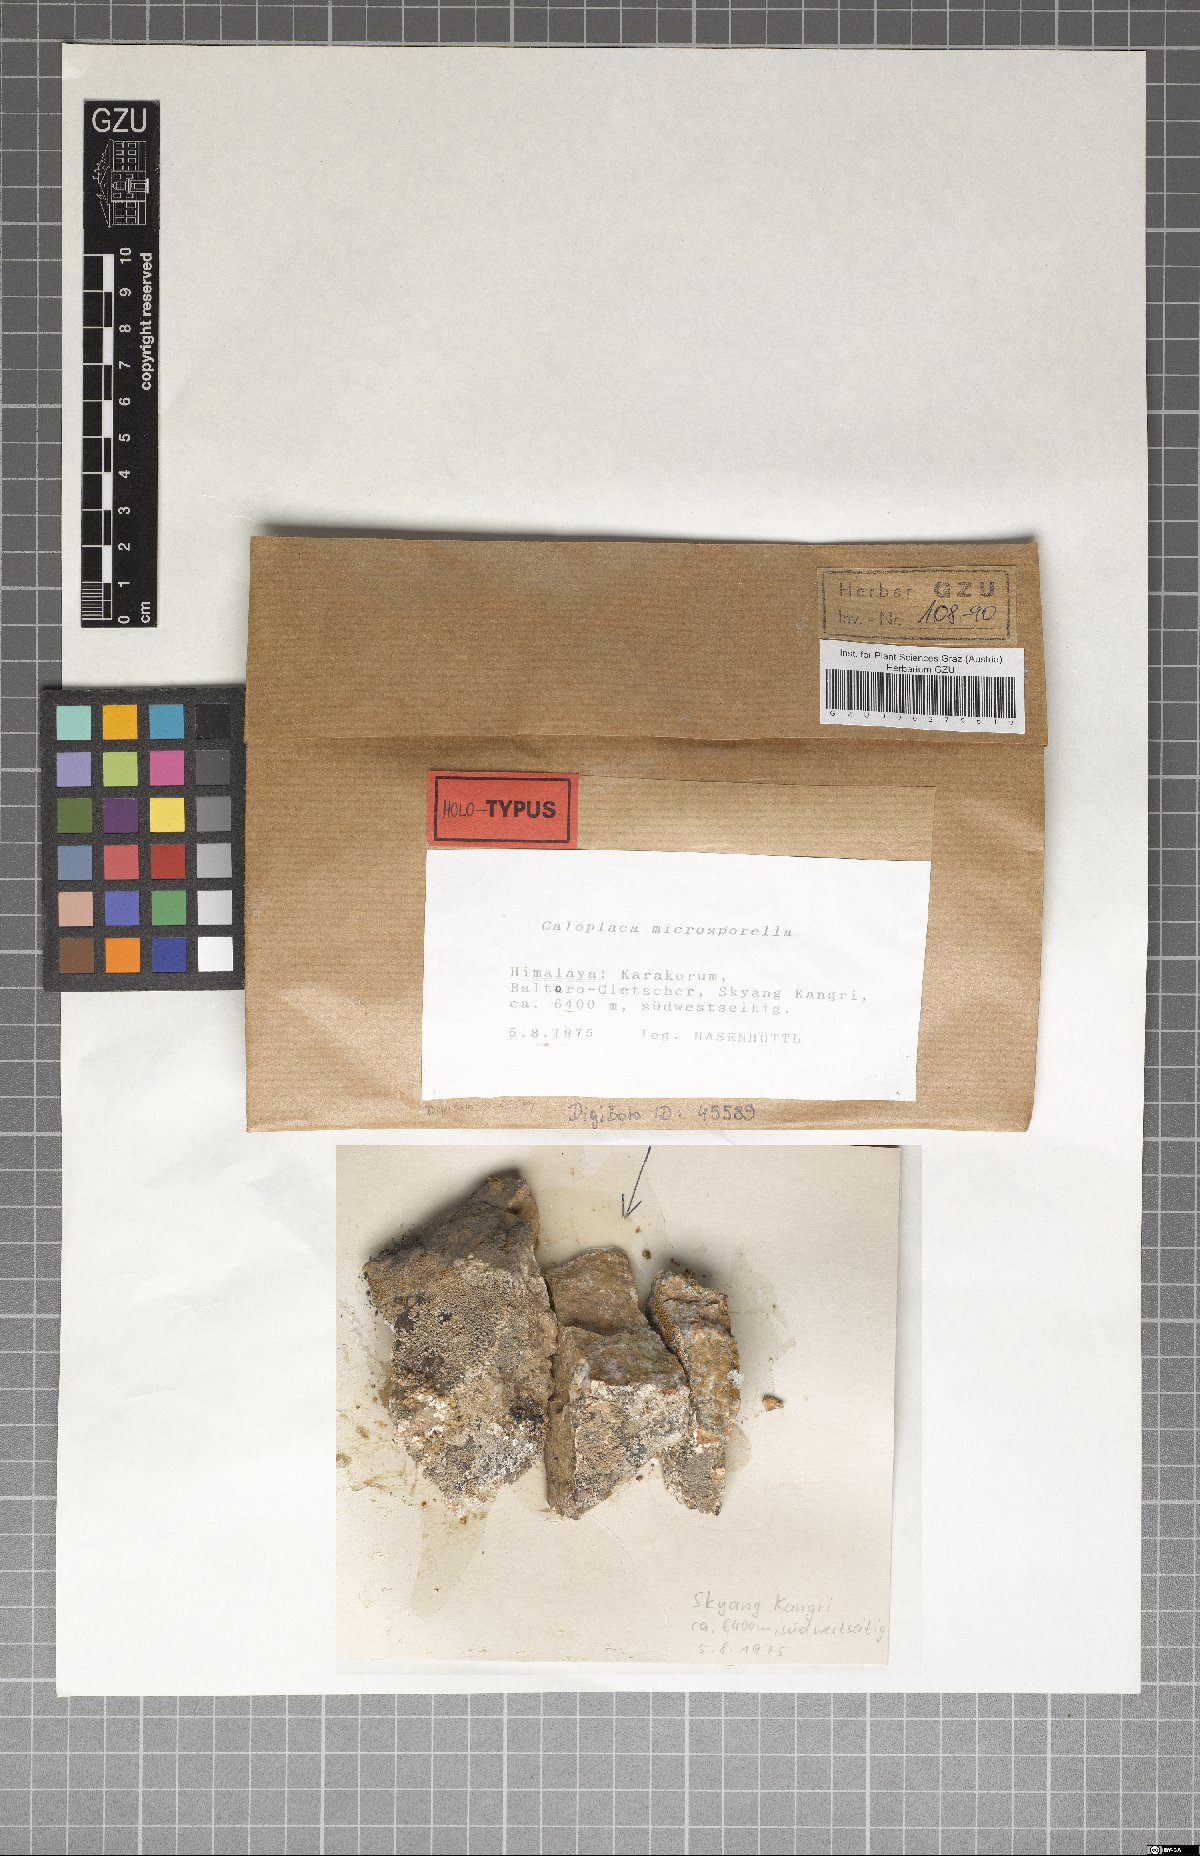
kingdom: Fungi
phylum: Ascomycota
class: Lecanoromycetes
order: Teloschistales
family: Teloschistaceae
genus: Caloplaca
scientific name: Caloplaca
